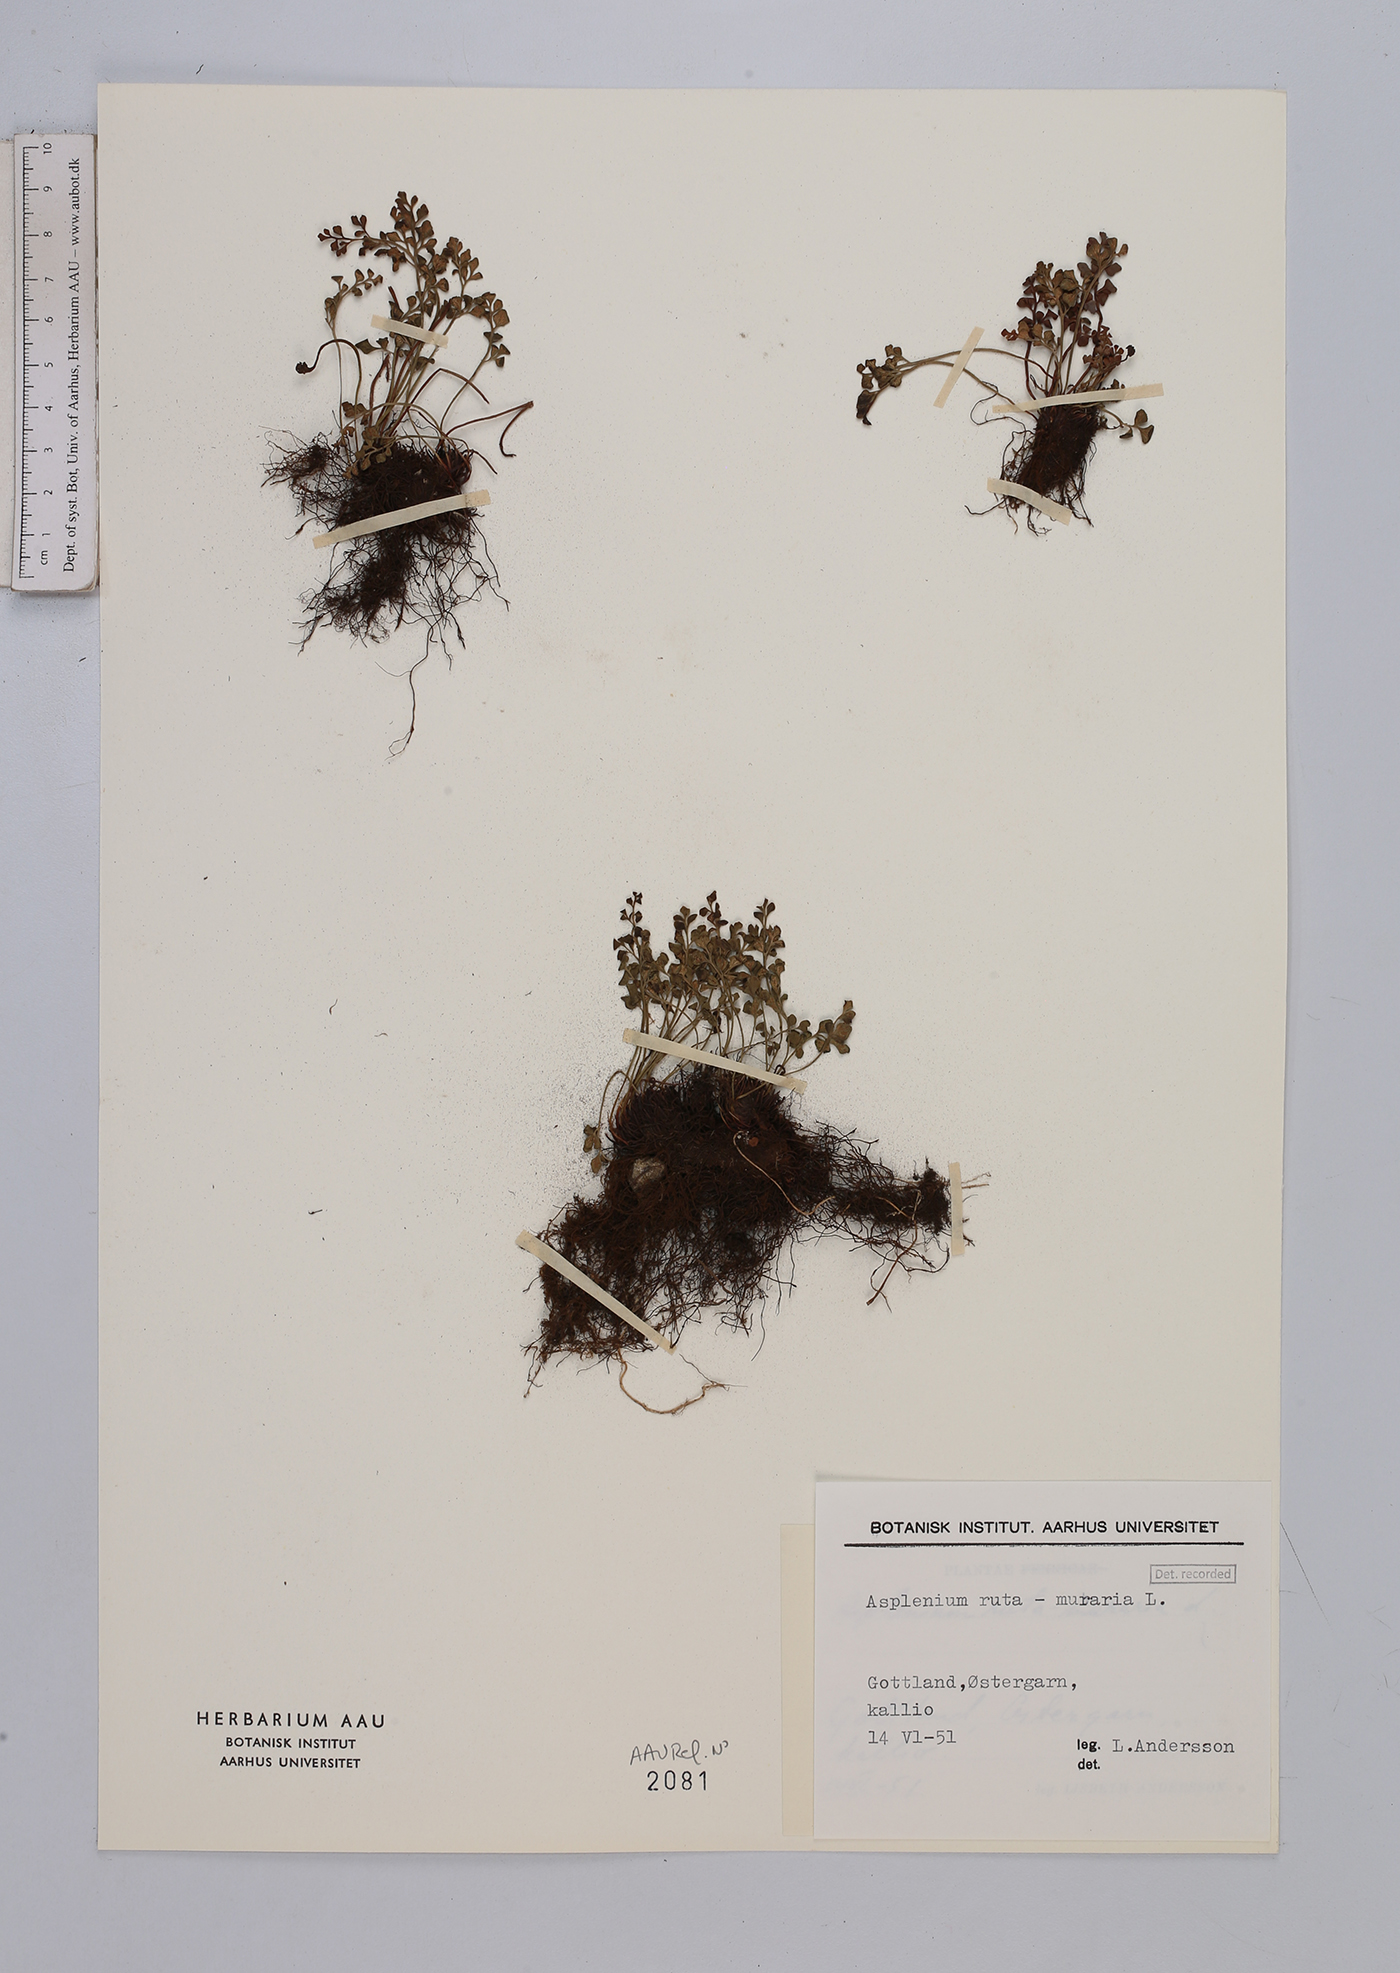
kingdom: Plantae
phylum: Tracheophyta
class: Polypodiopsida
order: Polypodiales
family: Aspleniaceae
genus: Asplenium
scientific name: Asplenium ruta-muraria
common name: Wall-rue
